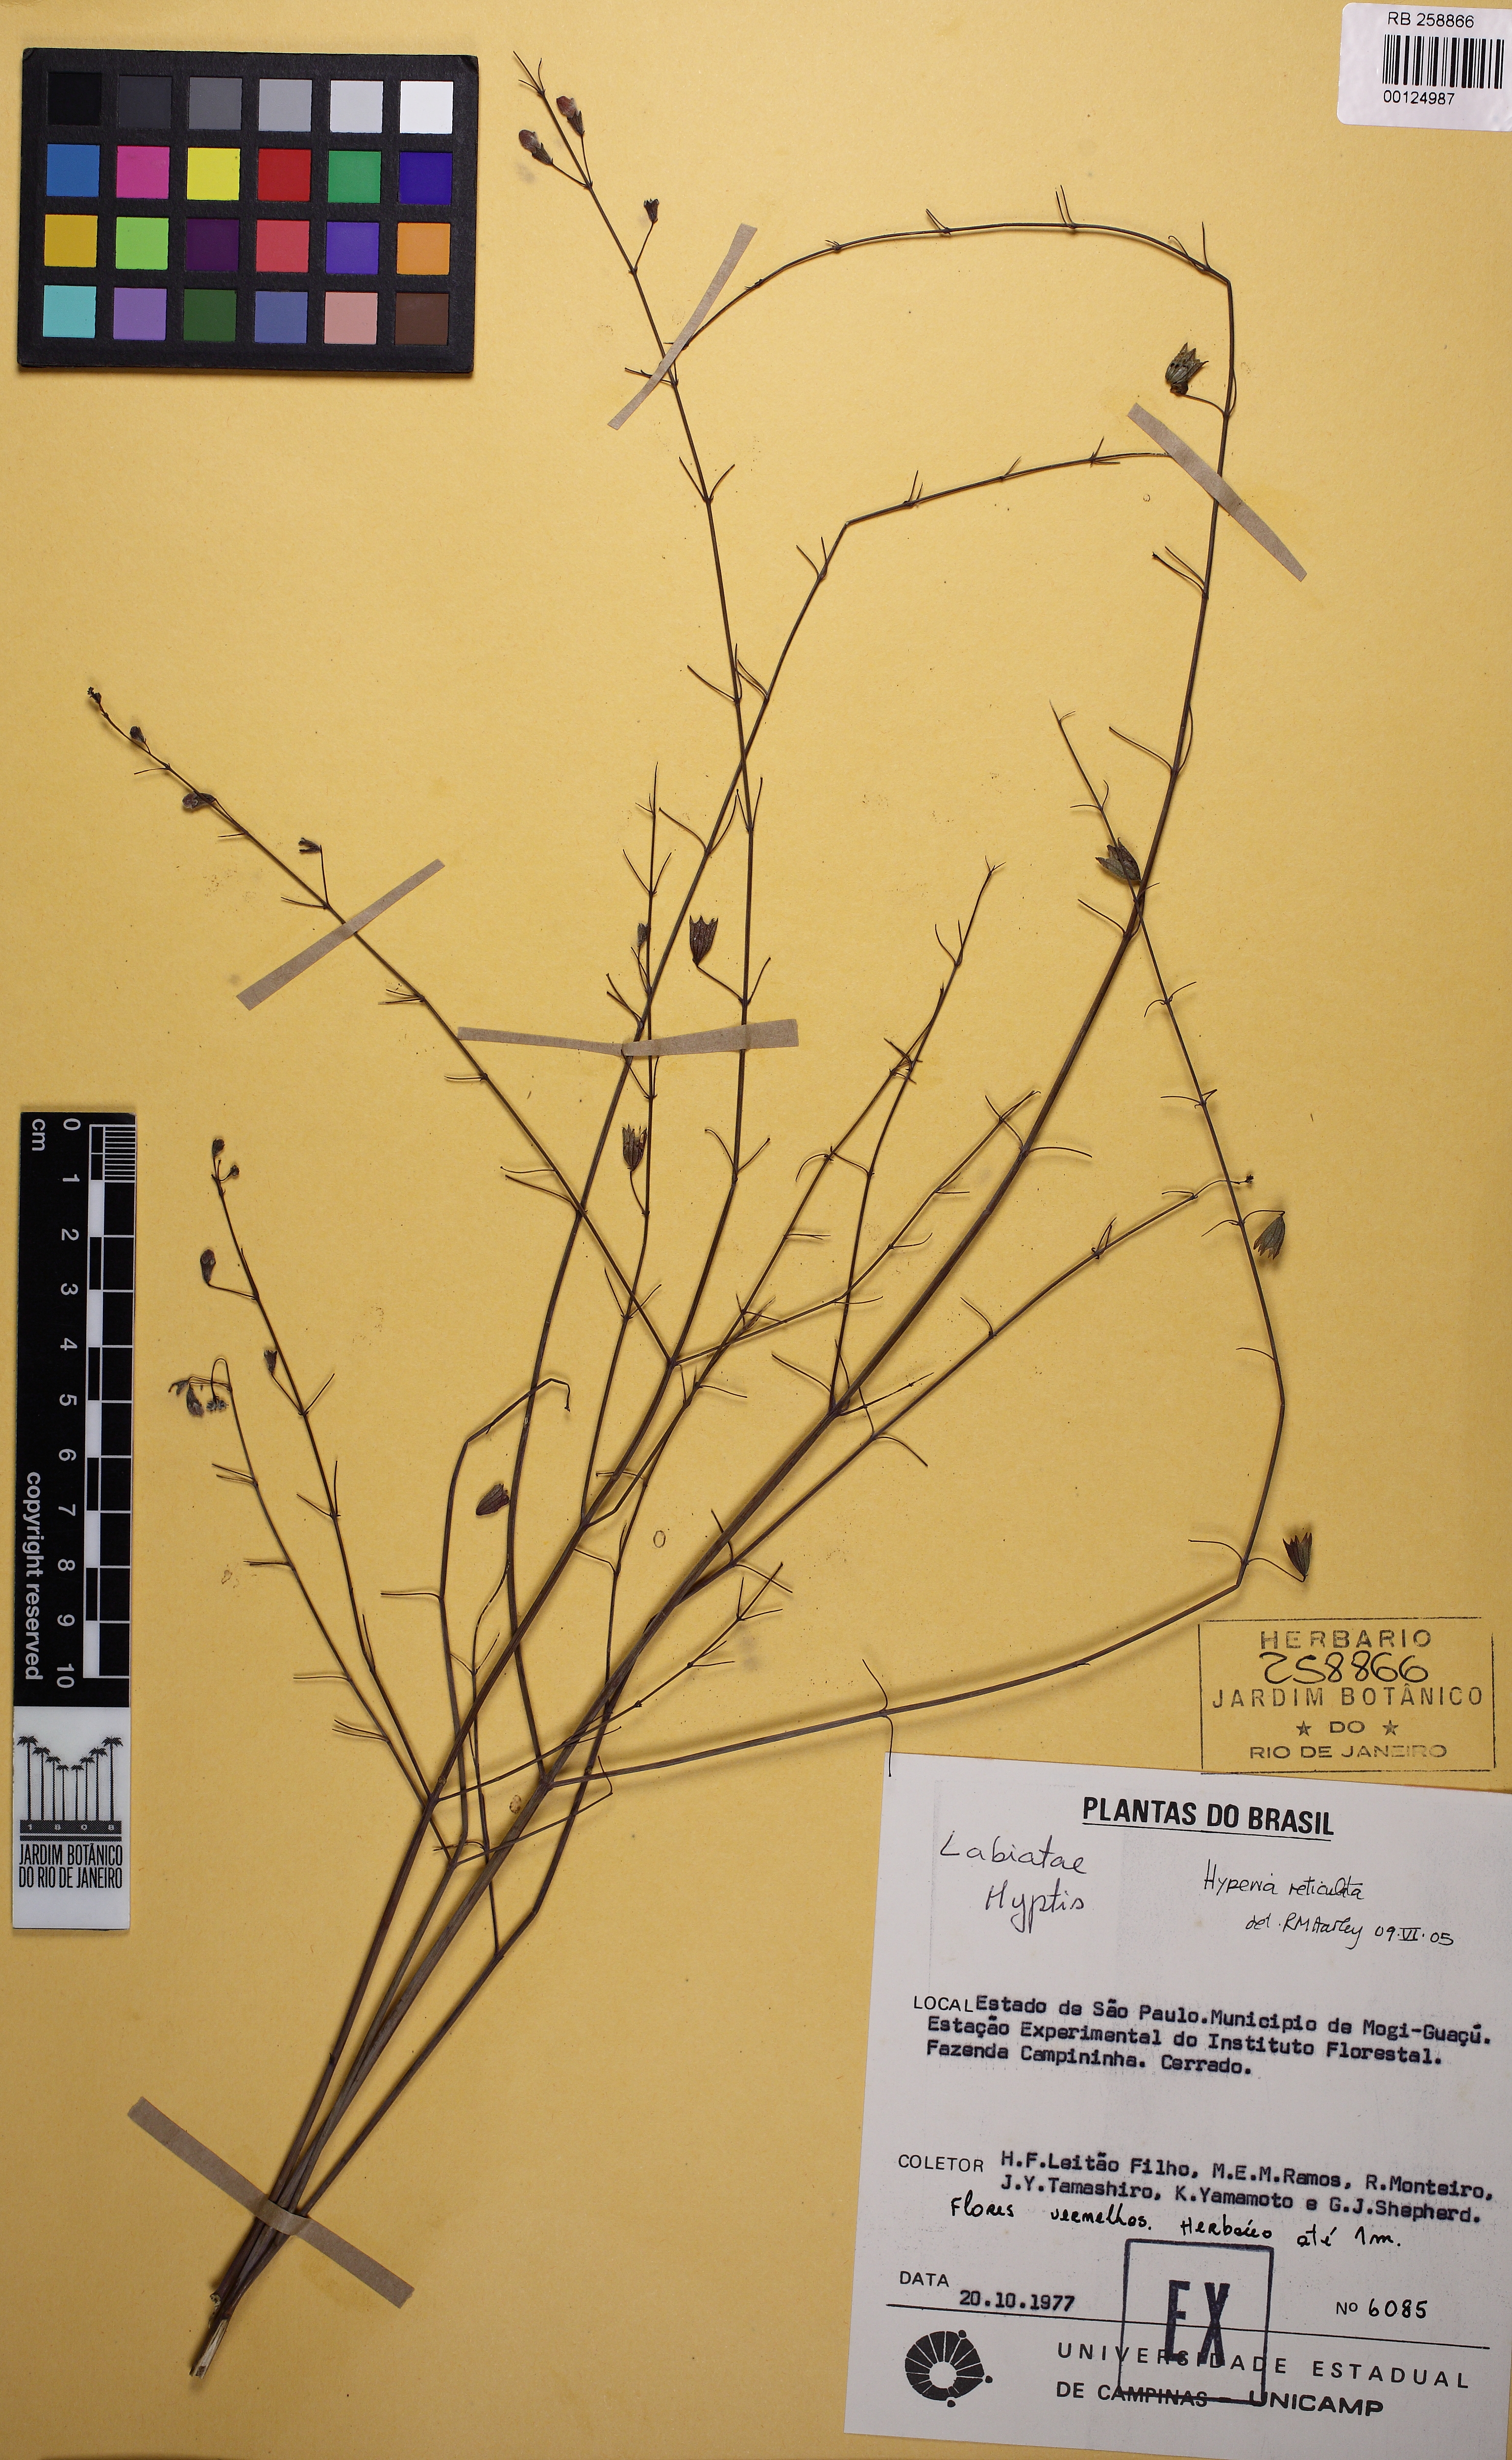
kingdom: Plantae
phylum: Tracheophyta
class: Magnoliopsida
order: Lamiales
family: Lamiaceae
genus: Hyptis
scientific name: Hyptis
